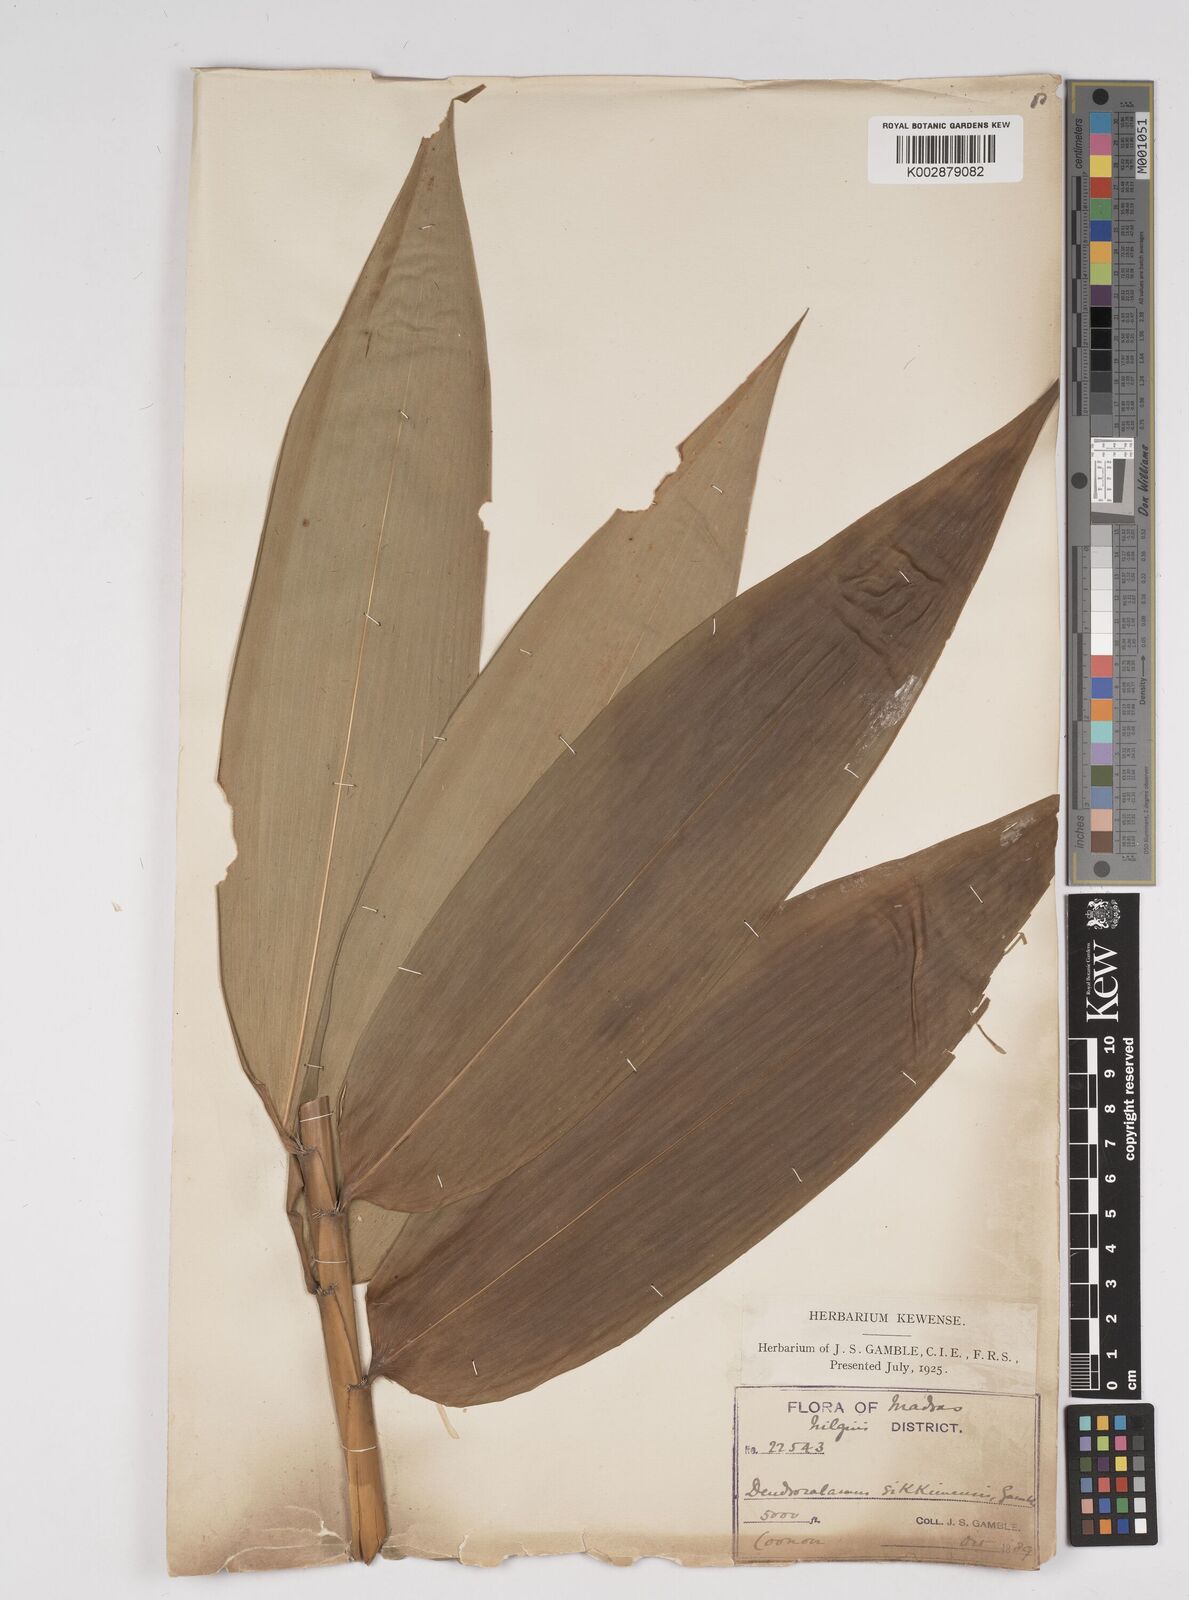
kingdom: Plantae
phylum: Tracheophyta
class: Liliopsida
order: Poales
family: Poaceae
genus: Dendrocalamus
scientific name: Dendrocalamus sikkimensis
